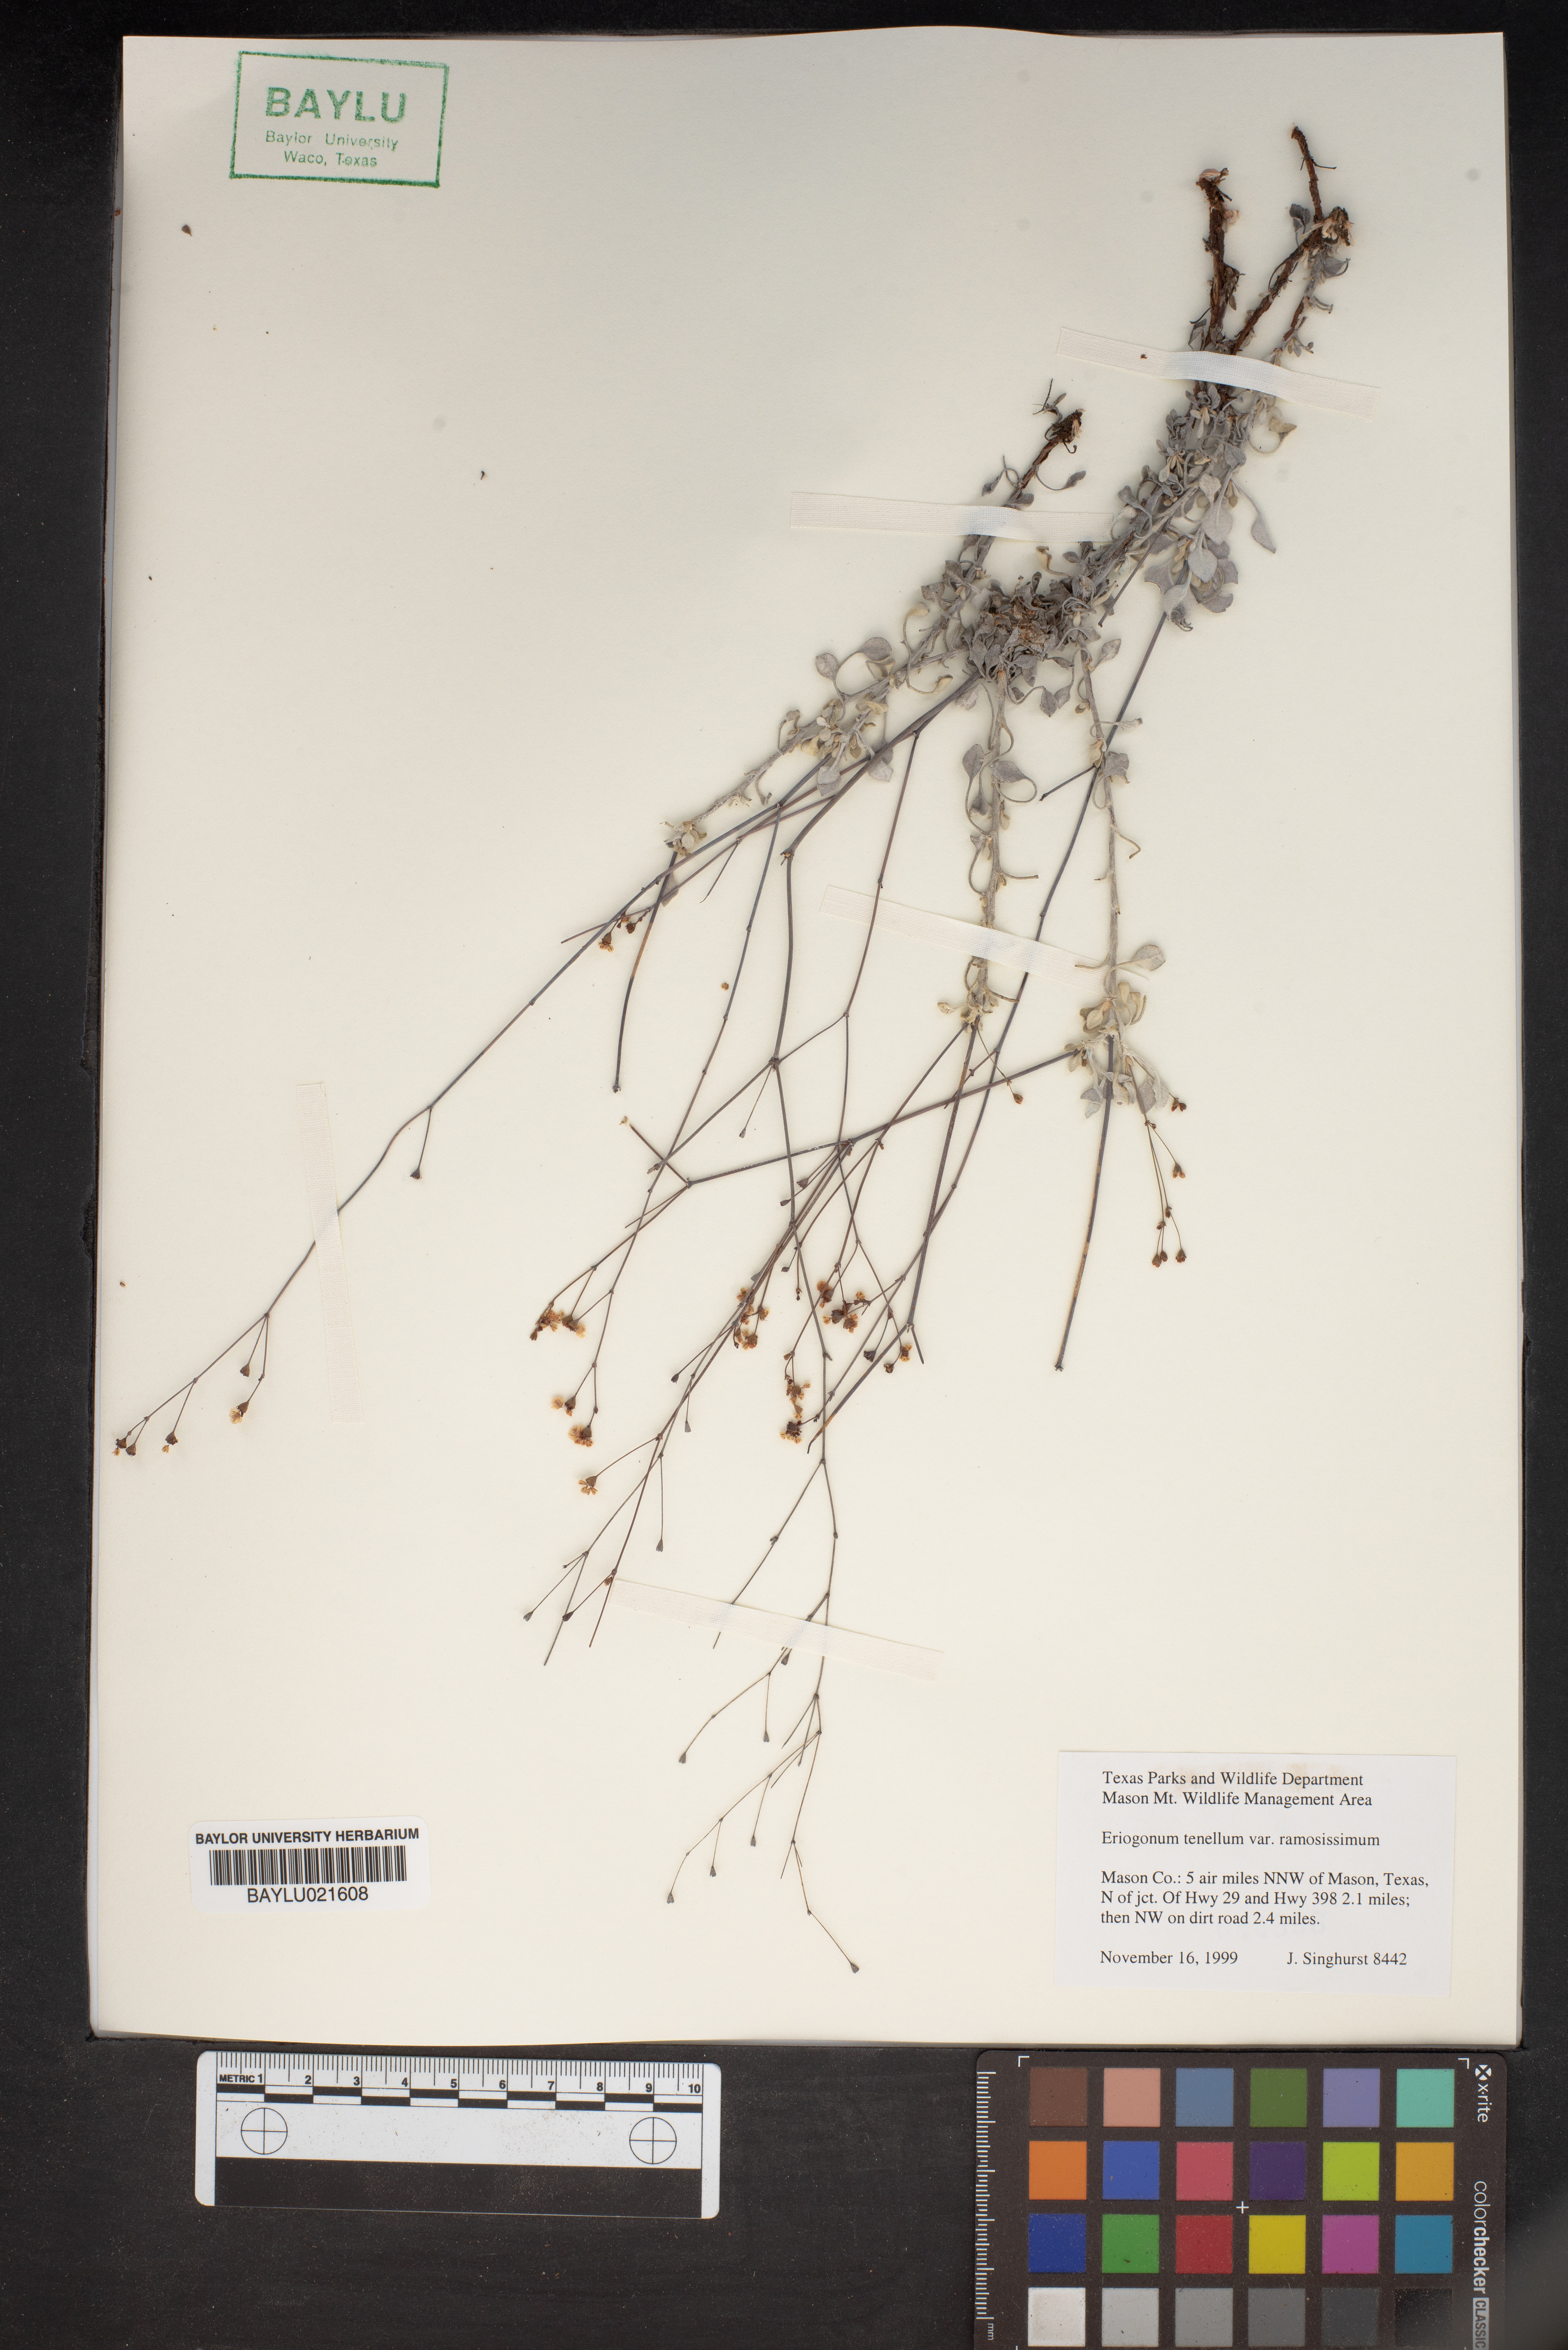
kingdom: Plantae
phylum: Tracheophyta
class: Magnoliopsida
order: Caryophyllales
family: Polygonaceae
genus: Eriogonum
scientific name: Eriogonum tenellum
